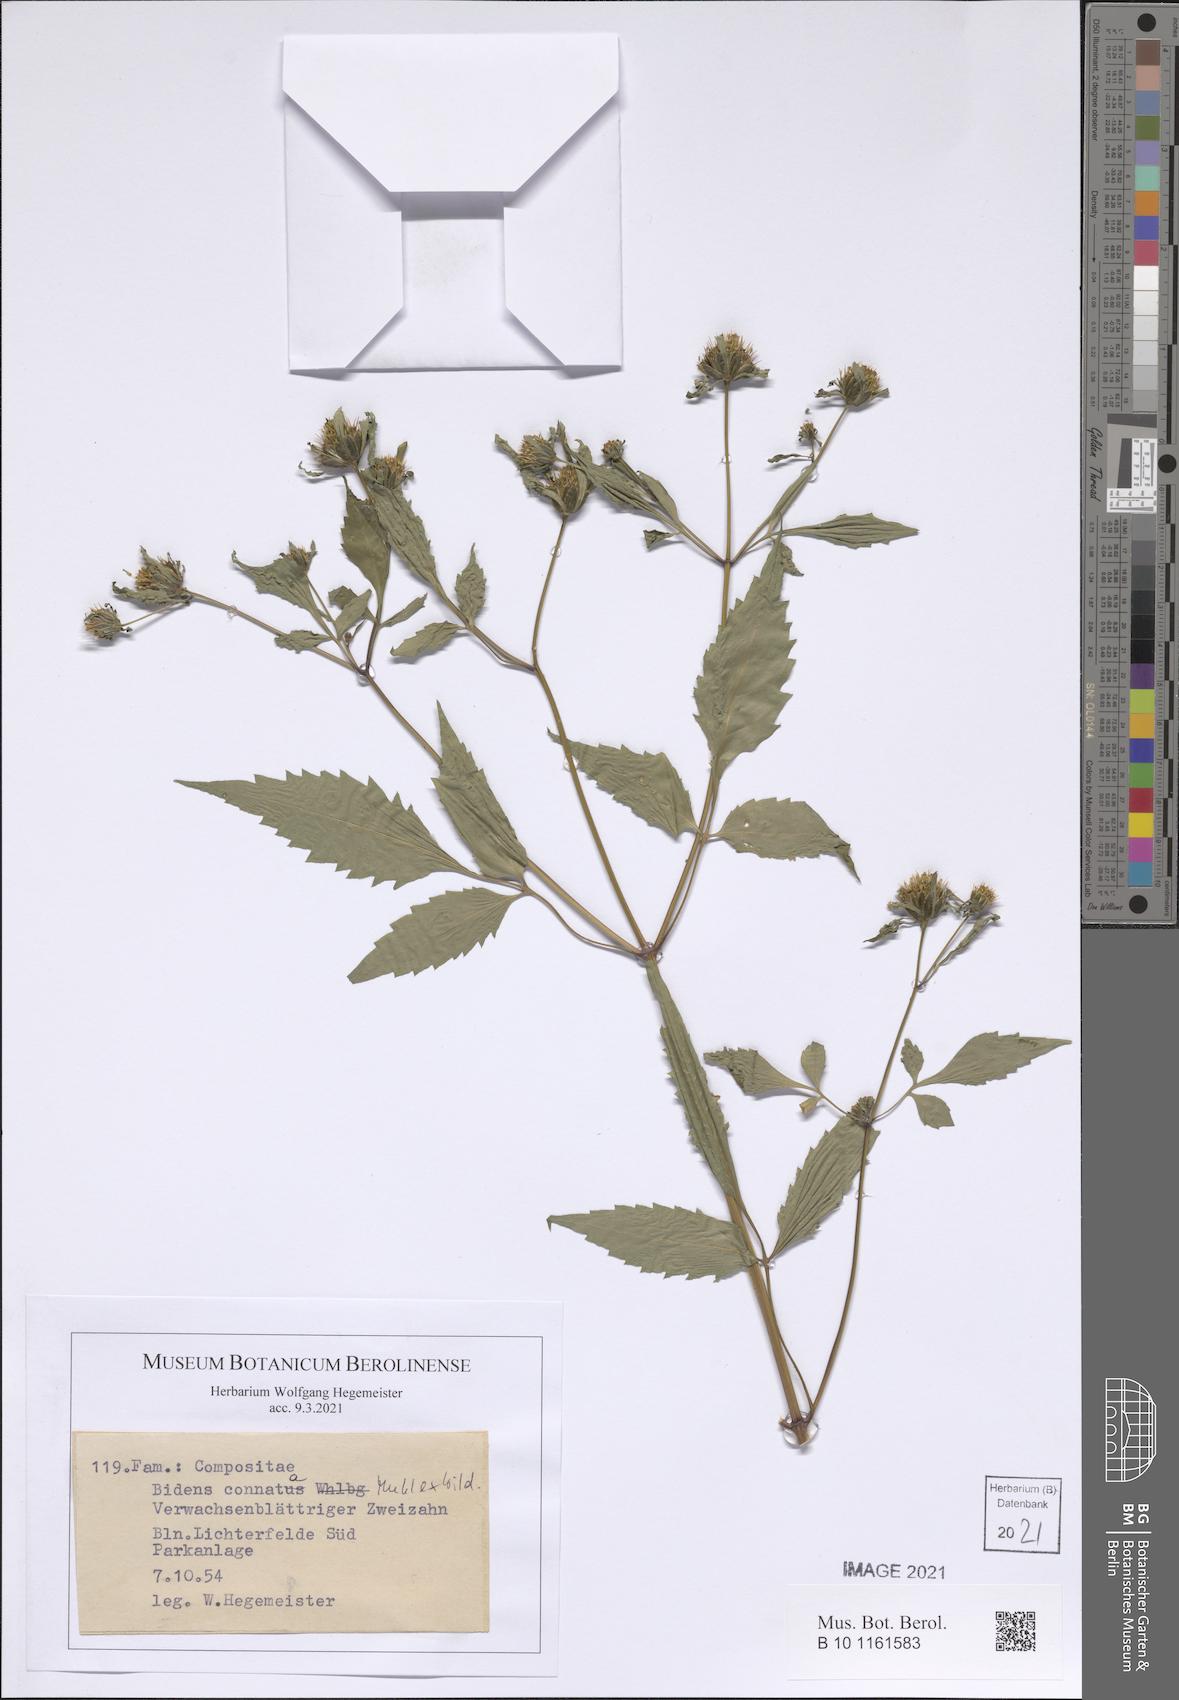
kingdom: Plantae
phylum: Tracheophyta
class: Magnoliopsida
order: Asterales
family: Asteraceae
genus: Bidens
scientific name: Bidens connata
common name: London bur-marigold
